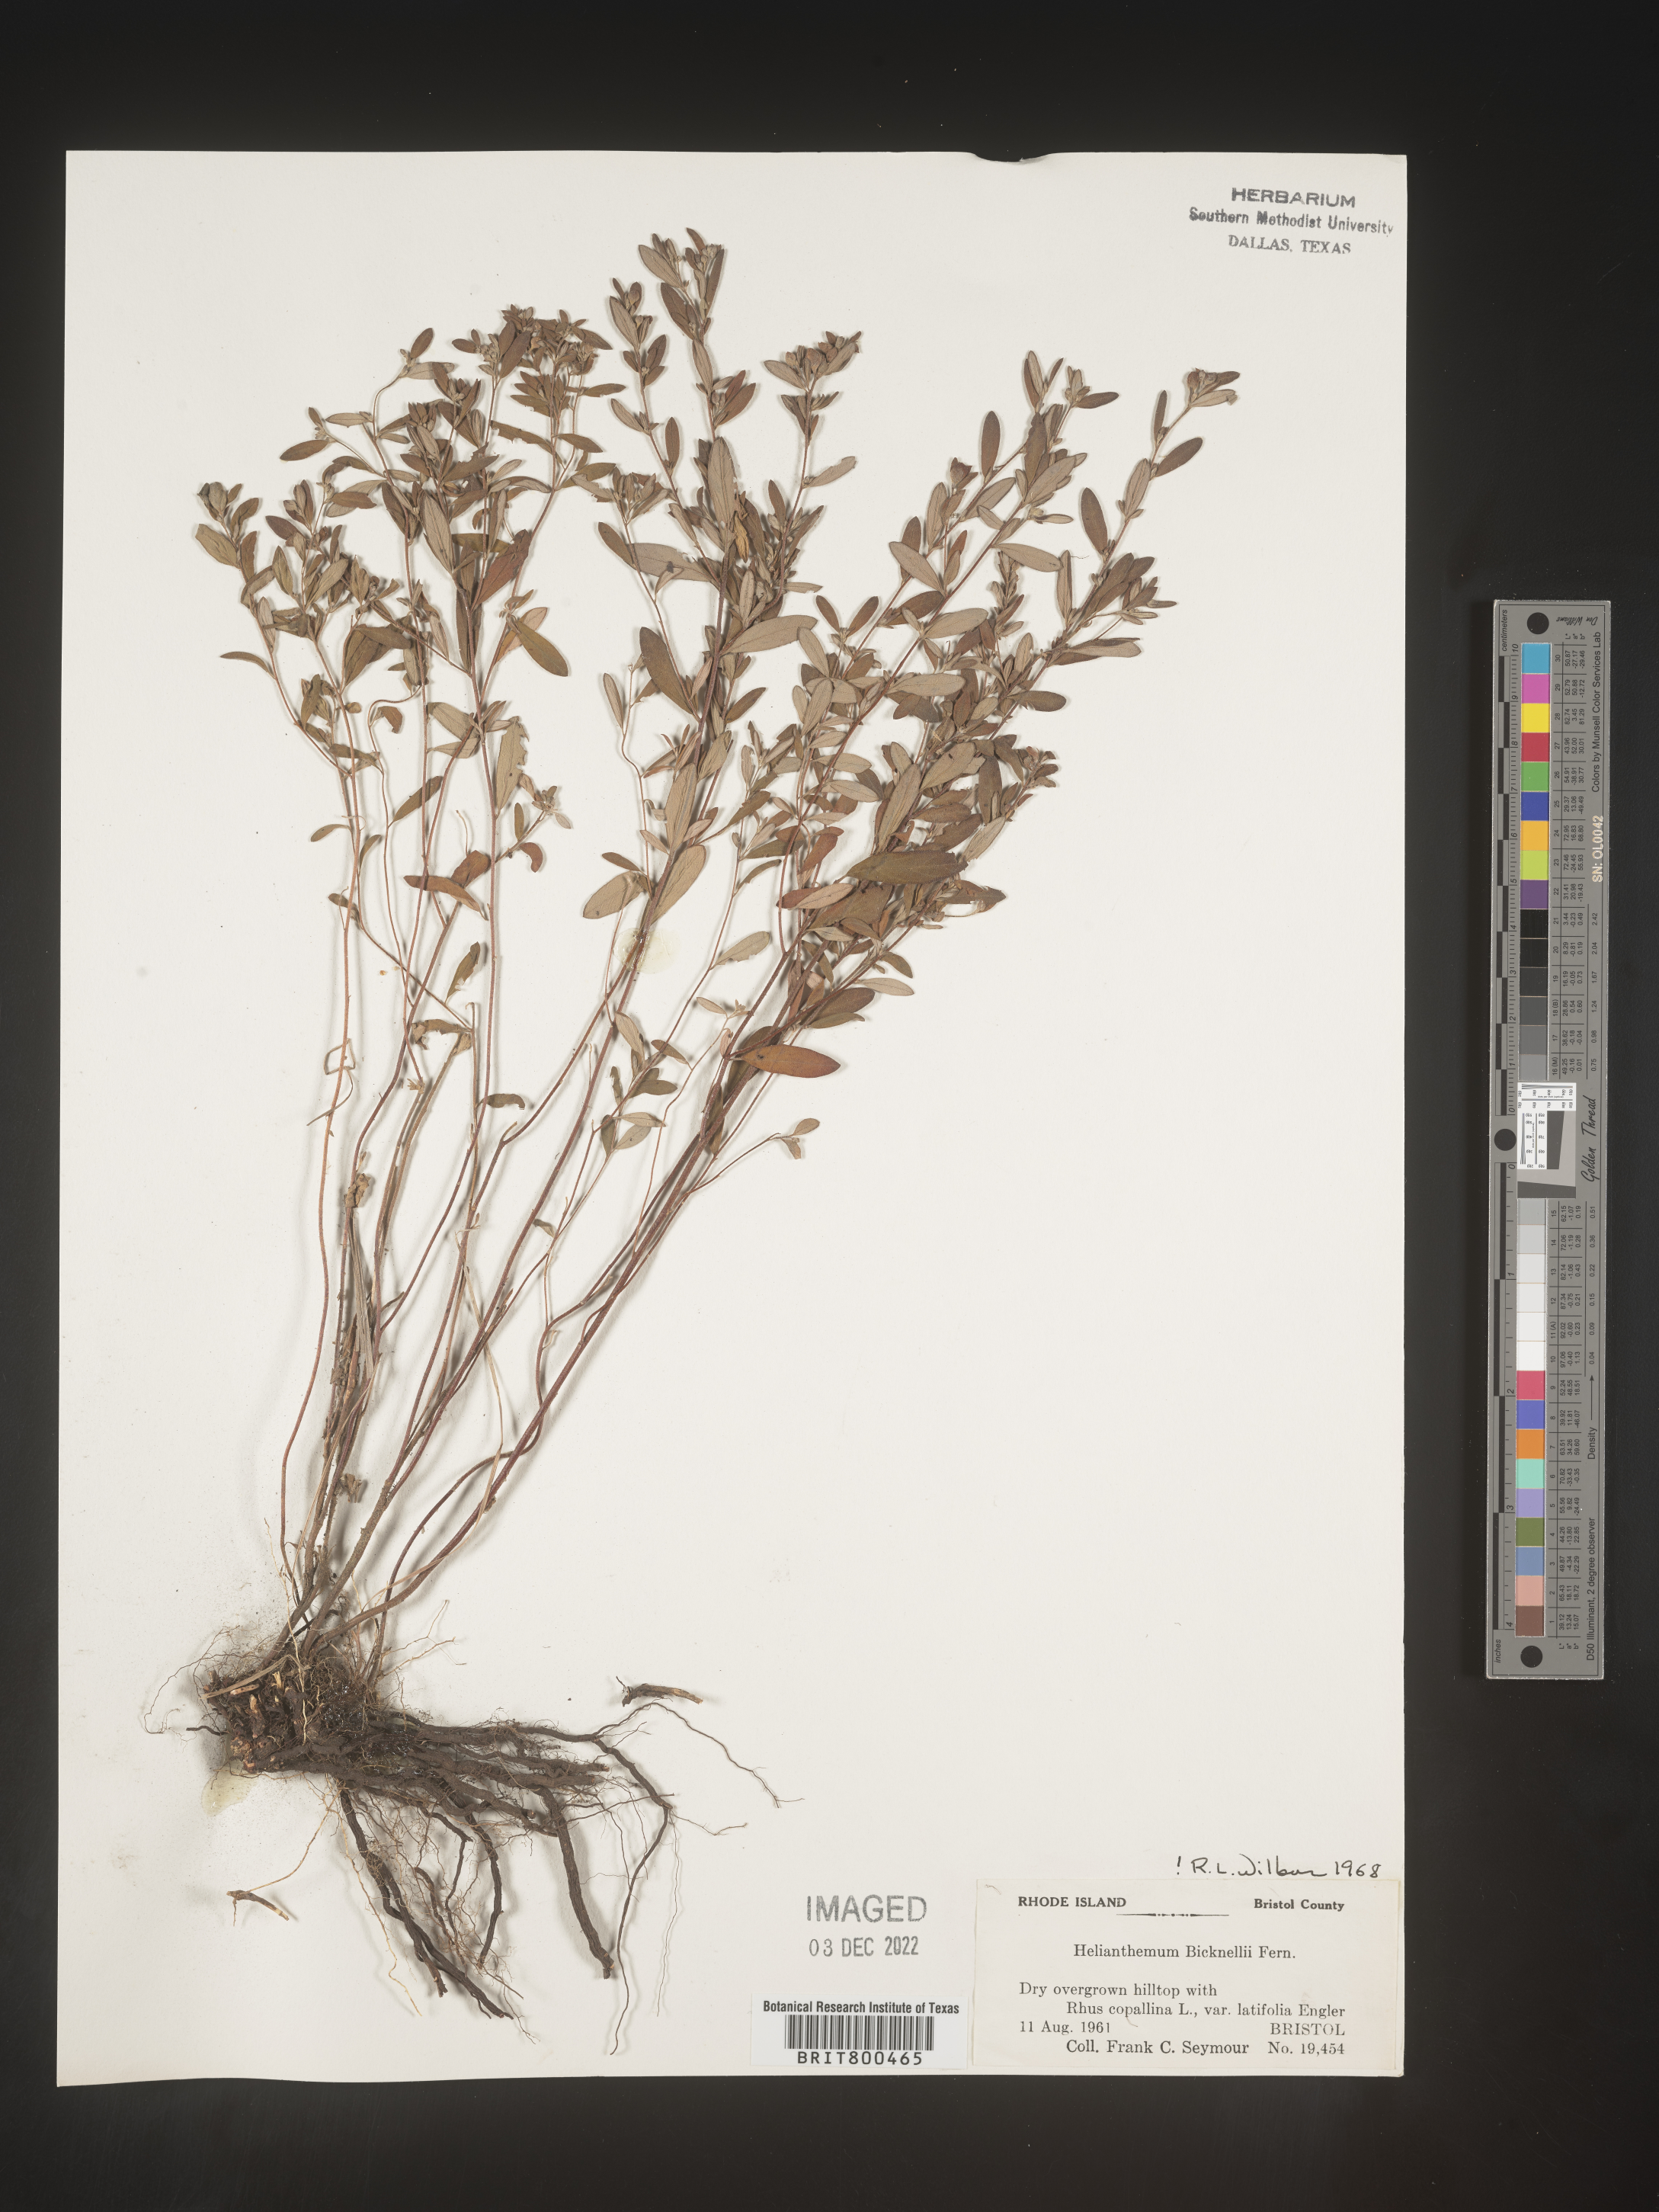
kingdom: Plantae
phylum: Tracheophyta
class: Magnoliopsida
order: Malvales
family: Cistaceae
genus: Helianthemum
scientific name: Helianthemum
